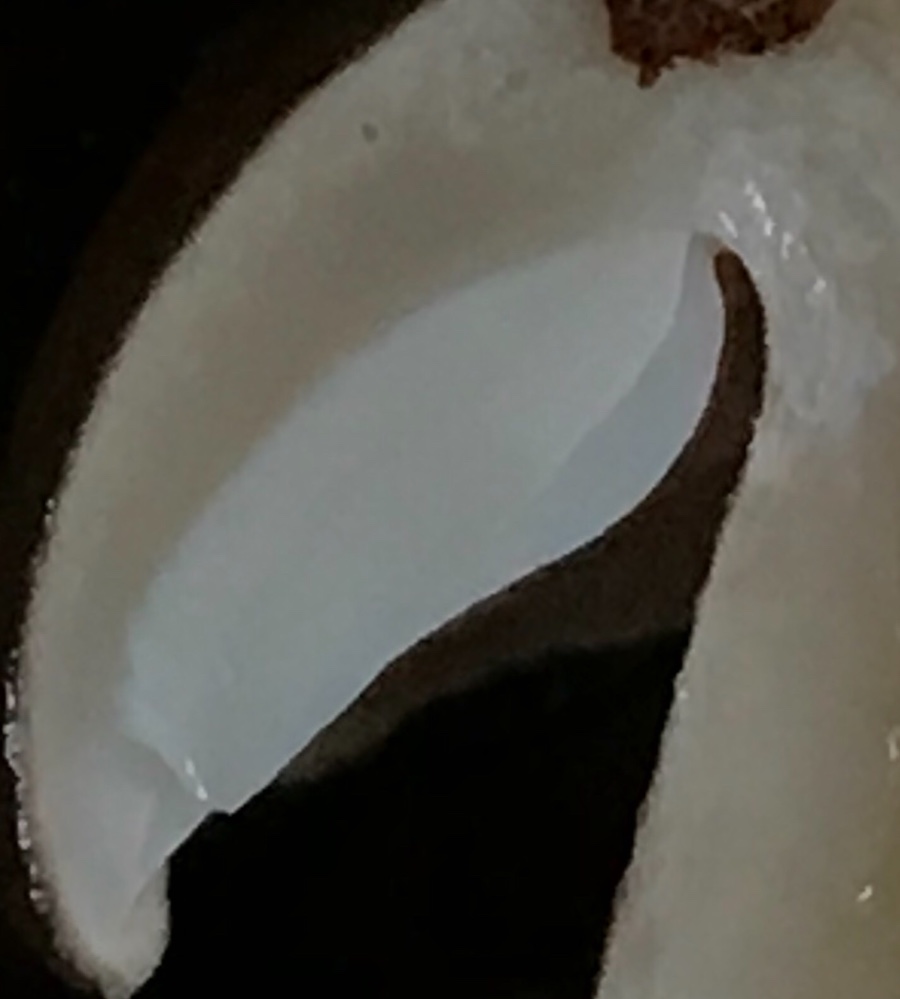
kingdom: Fungi
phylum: Basidiomycota
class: Agaricomycetes
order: Agaricales
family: Tricholomataceae
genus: Tricholoma
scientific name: Tricholoma ustale
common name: sveden ridderhat
